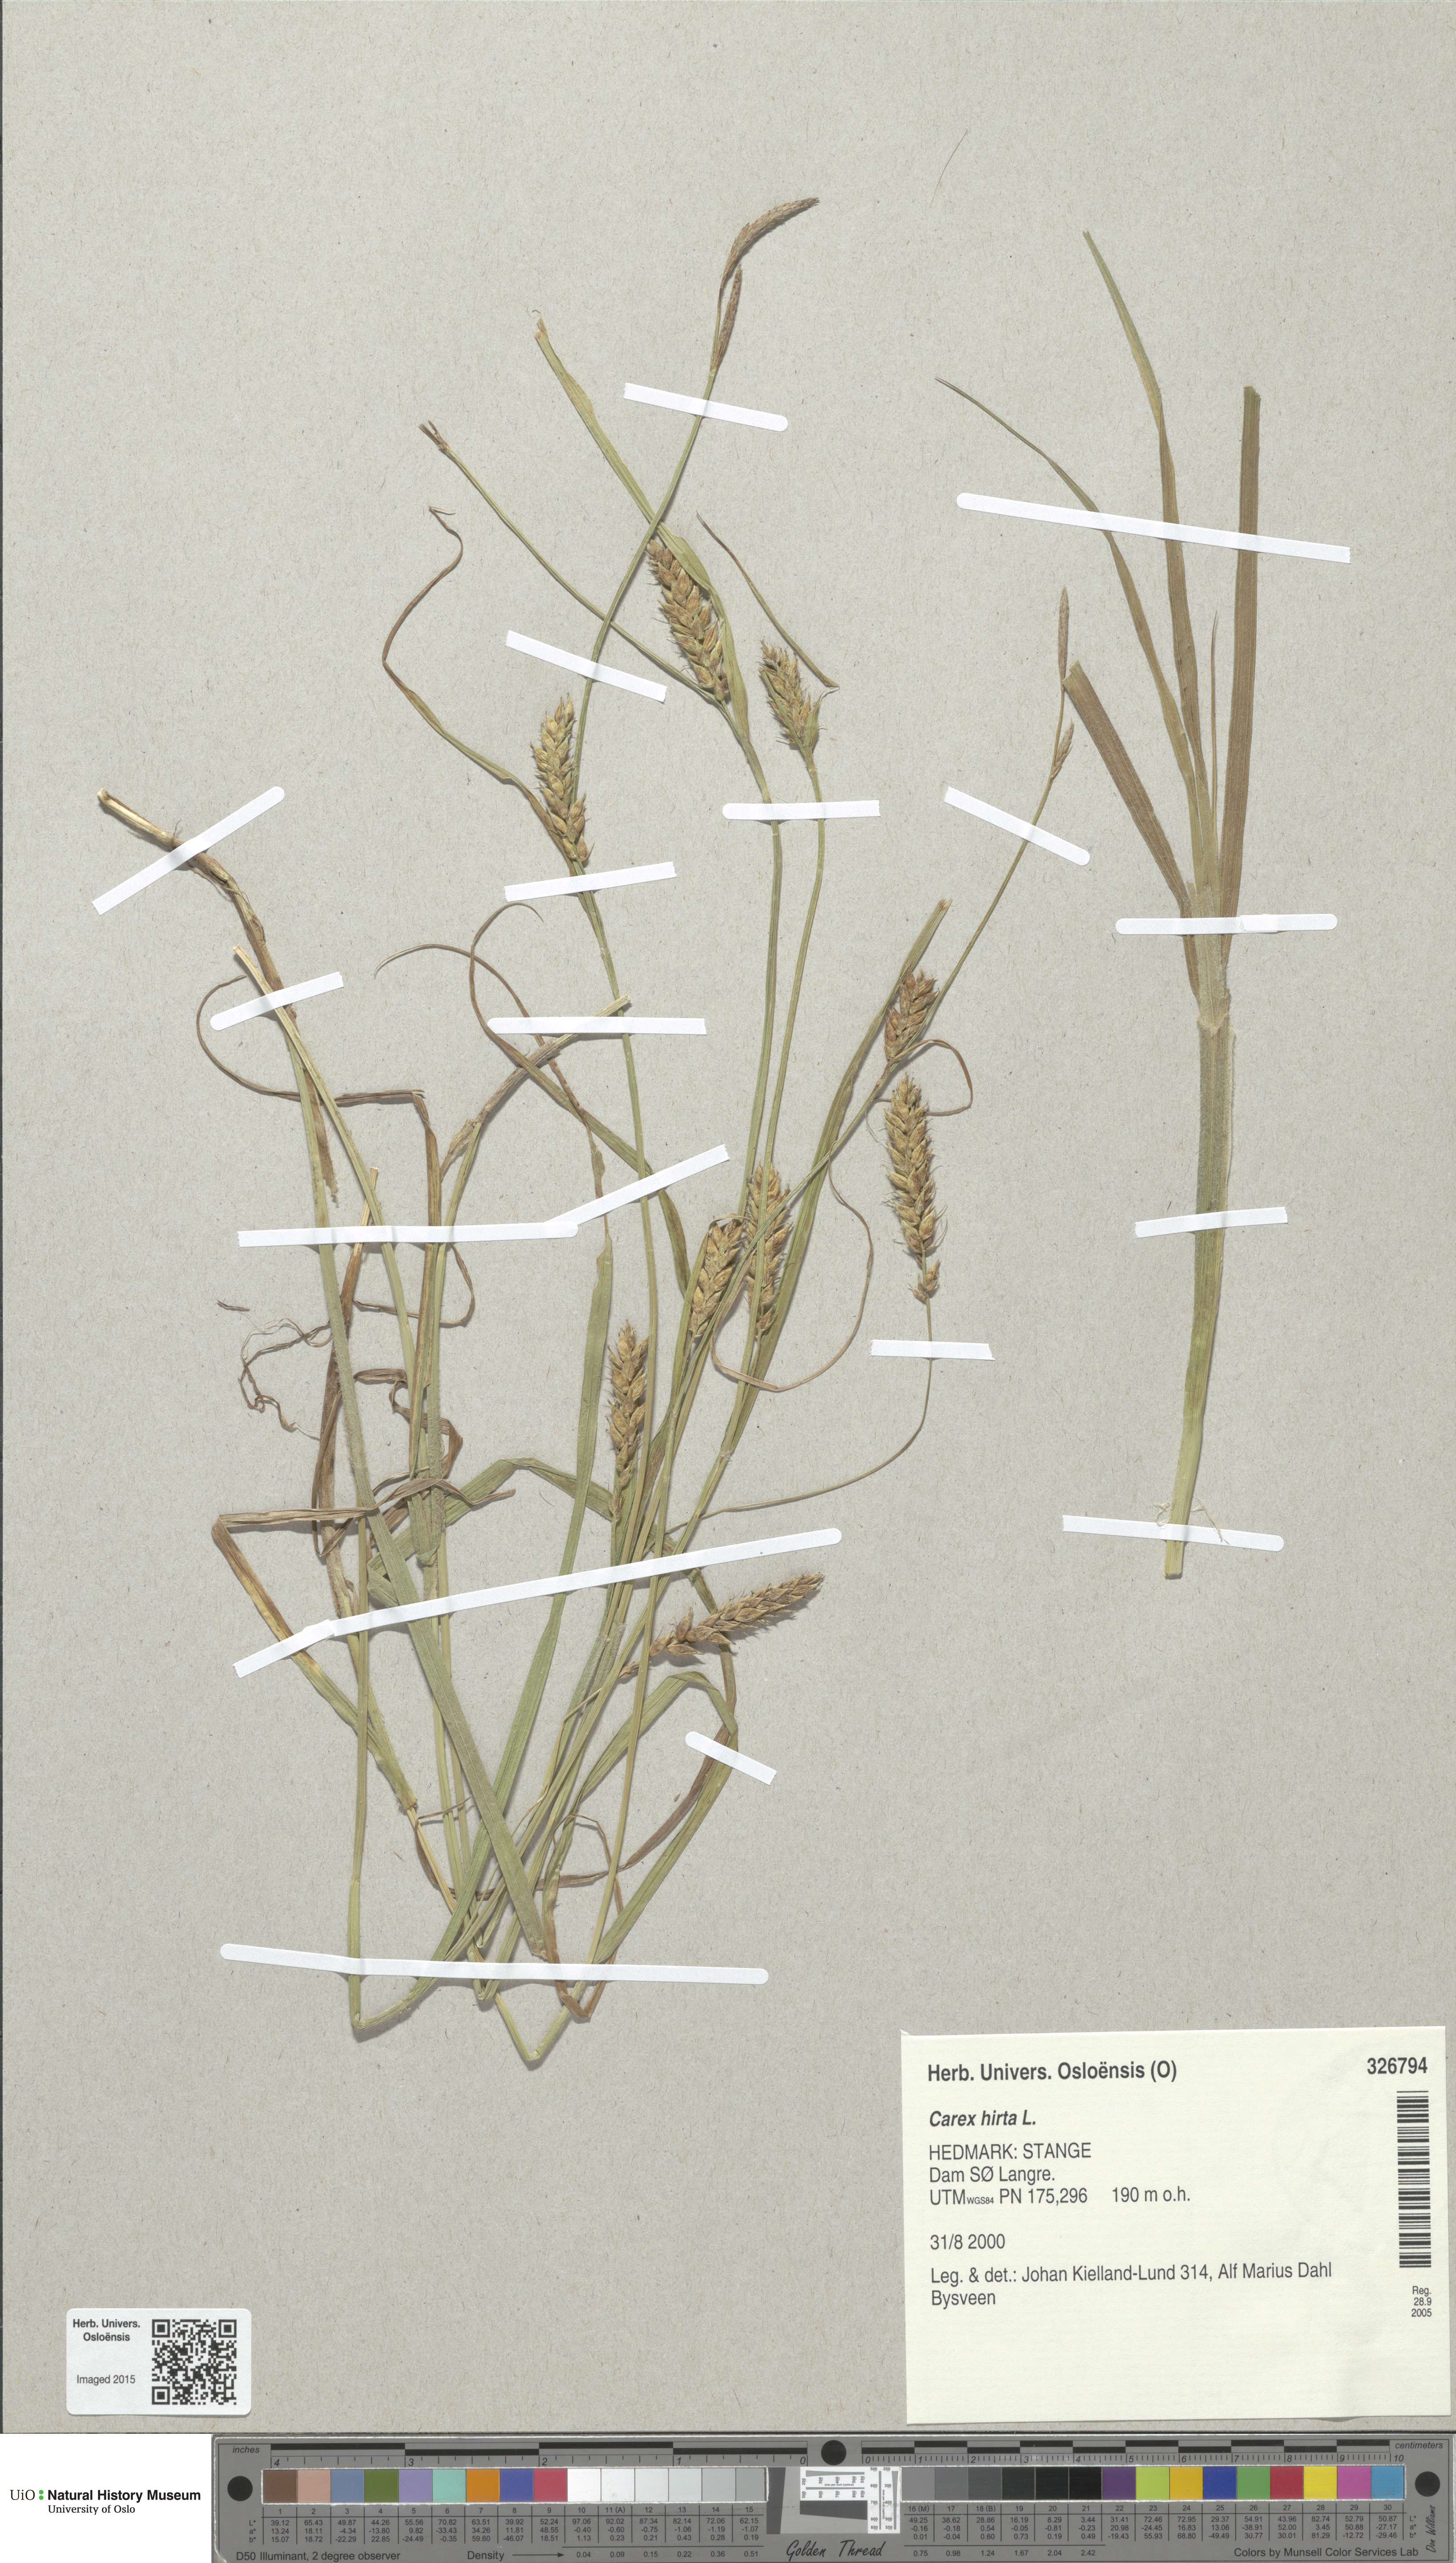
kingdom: Plantae
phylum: Tracheophyta
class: Liliopsida
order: Poales
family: Cyperaceae
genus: Carex
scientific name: Carex hirta
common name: Hairy sedge
